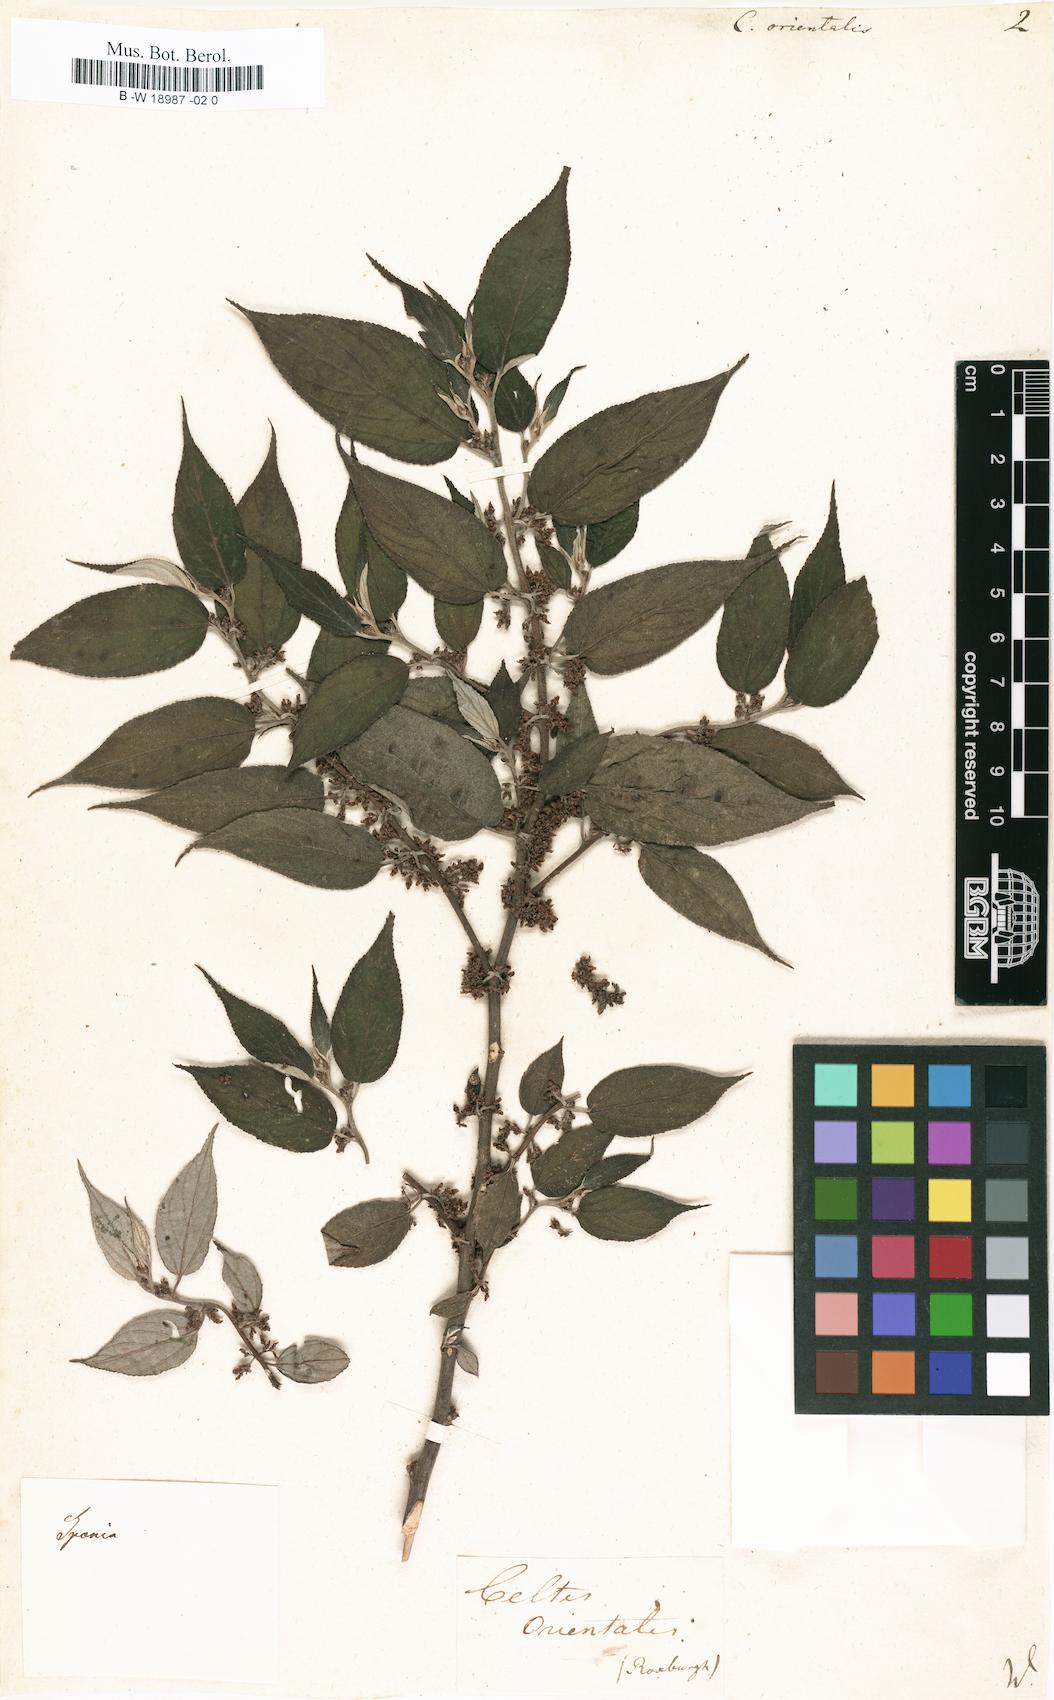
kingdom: Plantae
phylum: Tracheophyta
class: Magnoliopsida
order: Rosales
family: Cannabaceae
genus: Trema
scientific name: Trema orientale
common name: Indian charcoal tree
